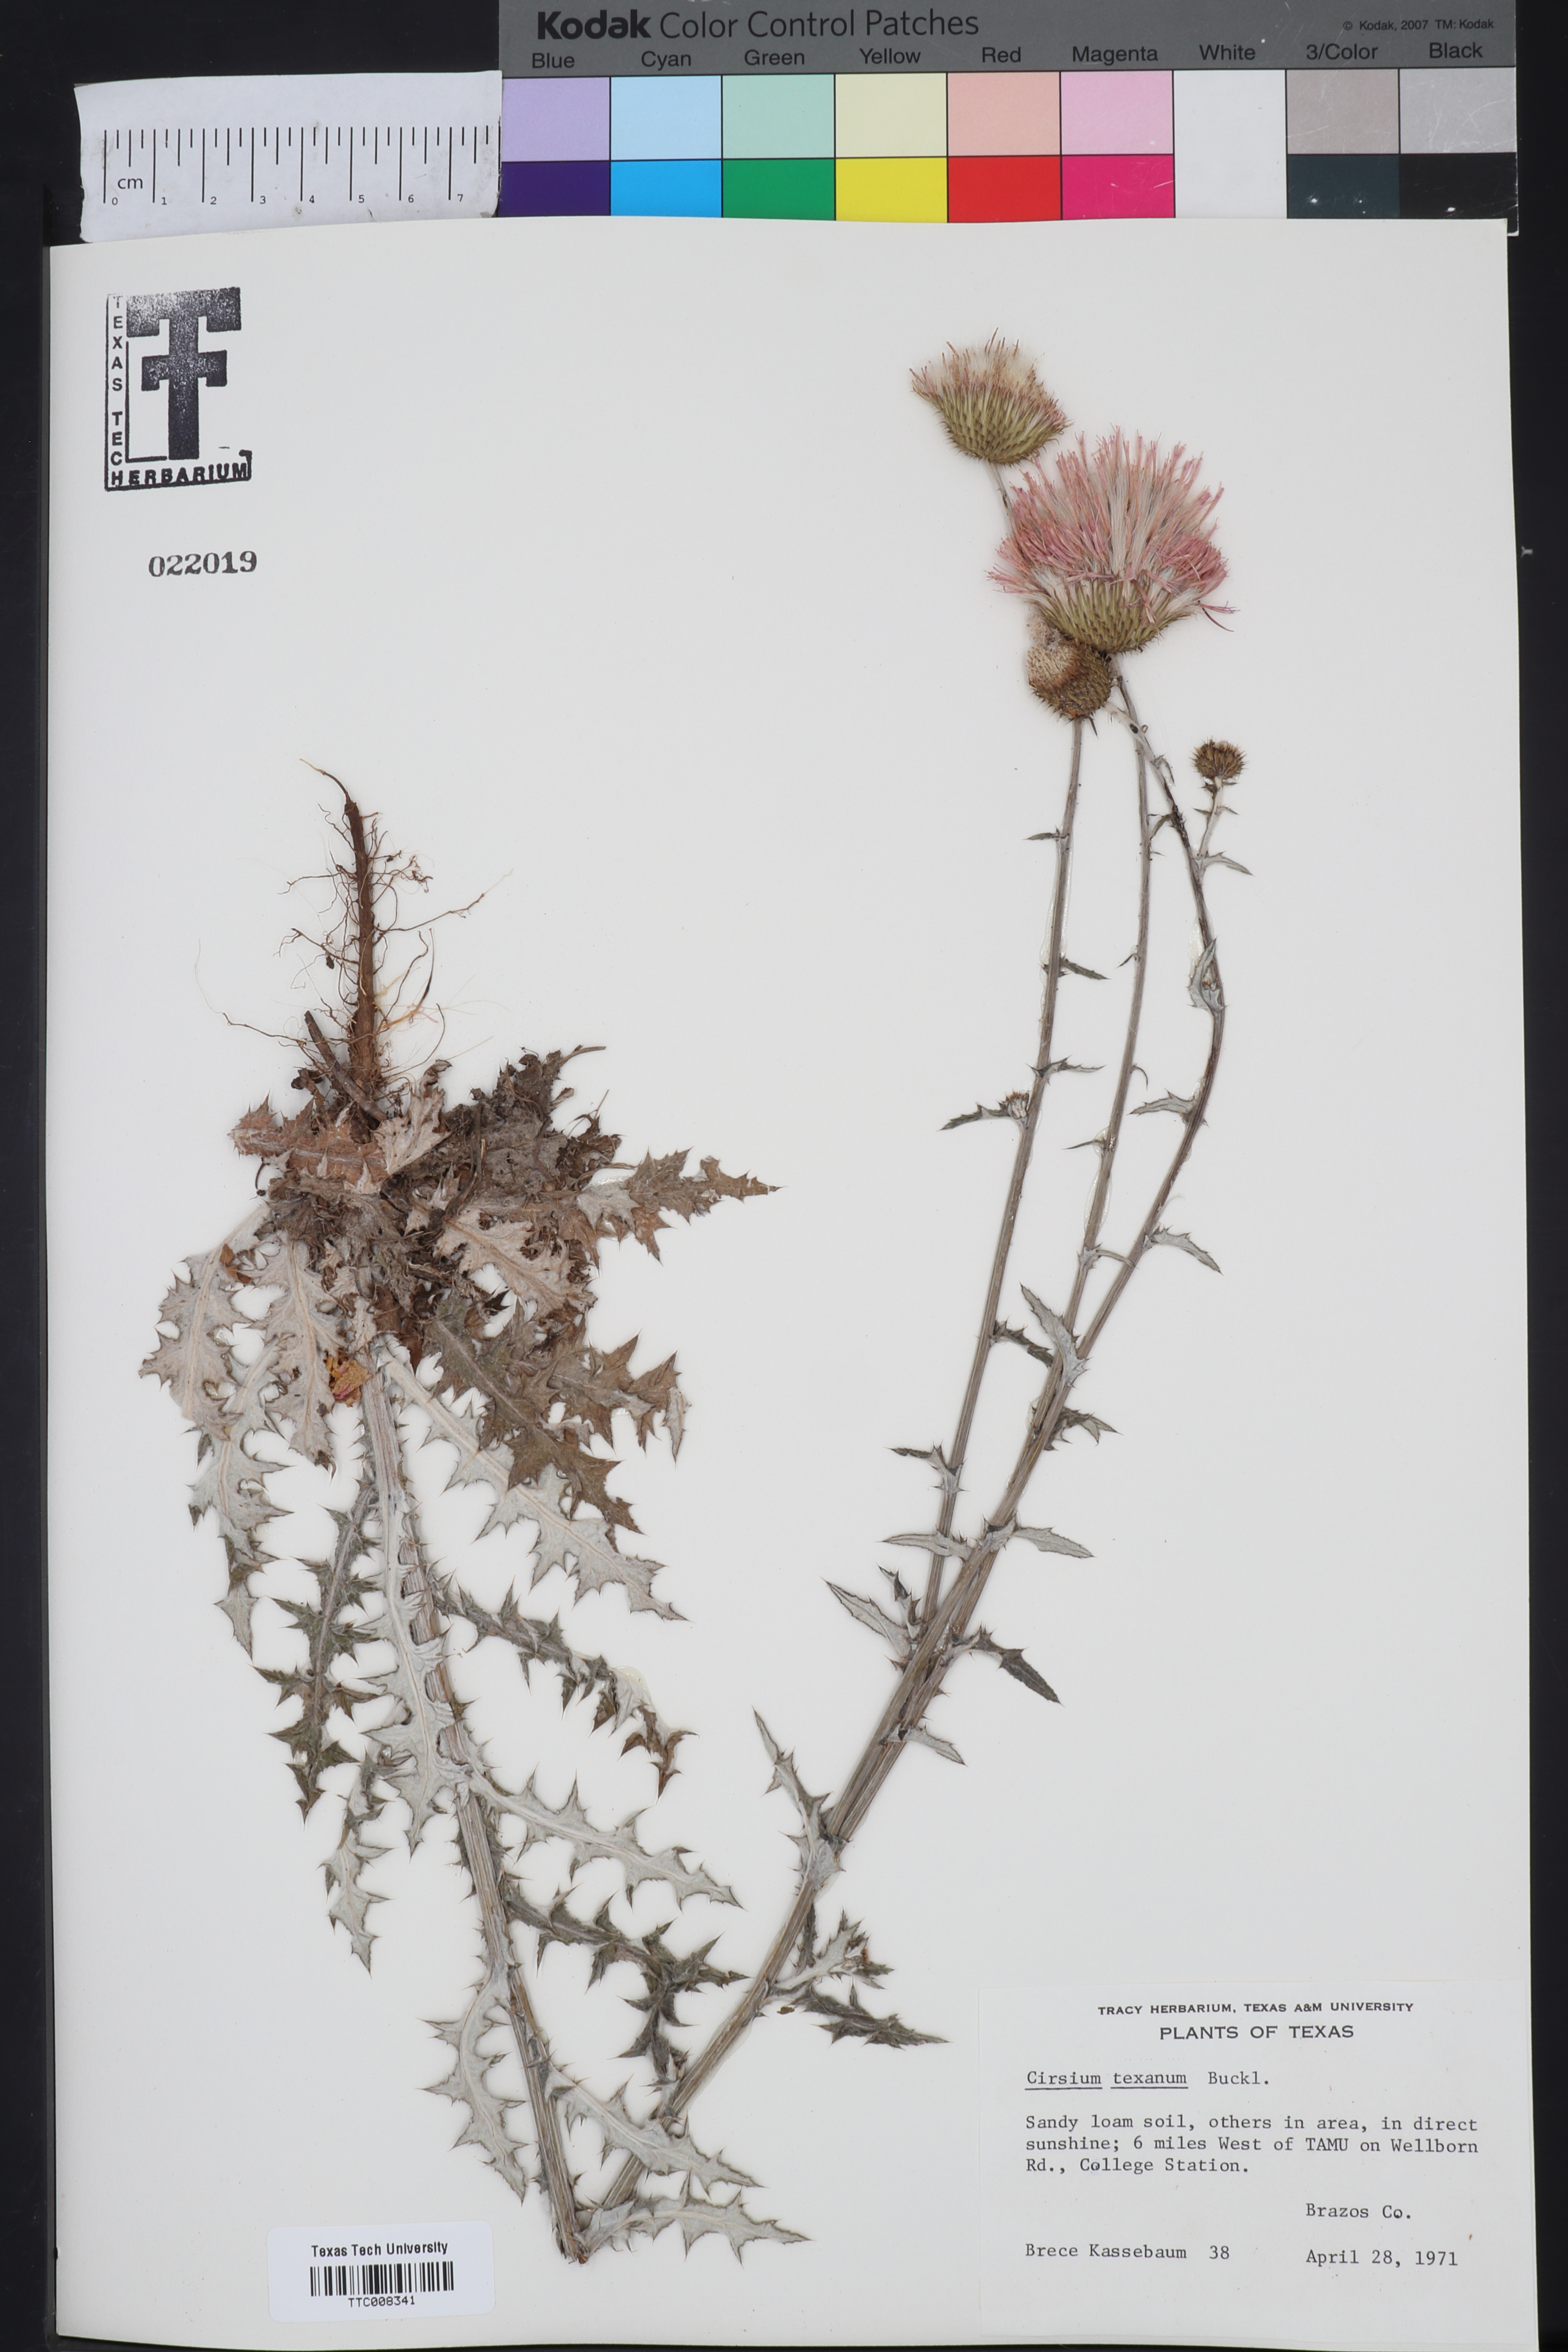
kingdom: Plantae
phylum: Tracheophyta
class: Magnoliopsida
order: Asterales
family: Asteraceae
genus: Cirsium
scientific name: Cirsium texanum
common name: Texas purple thistle
